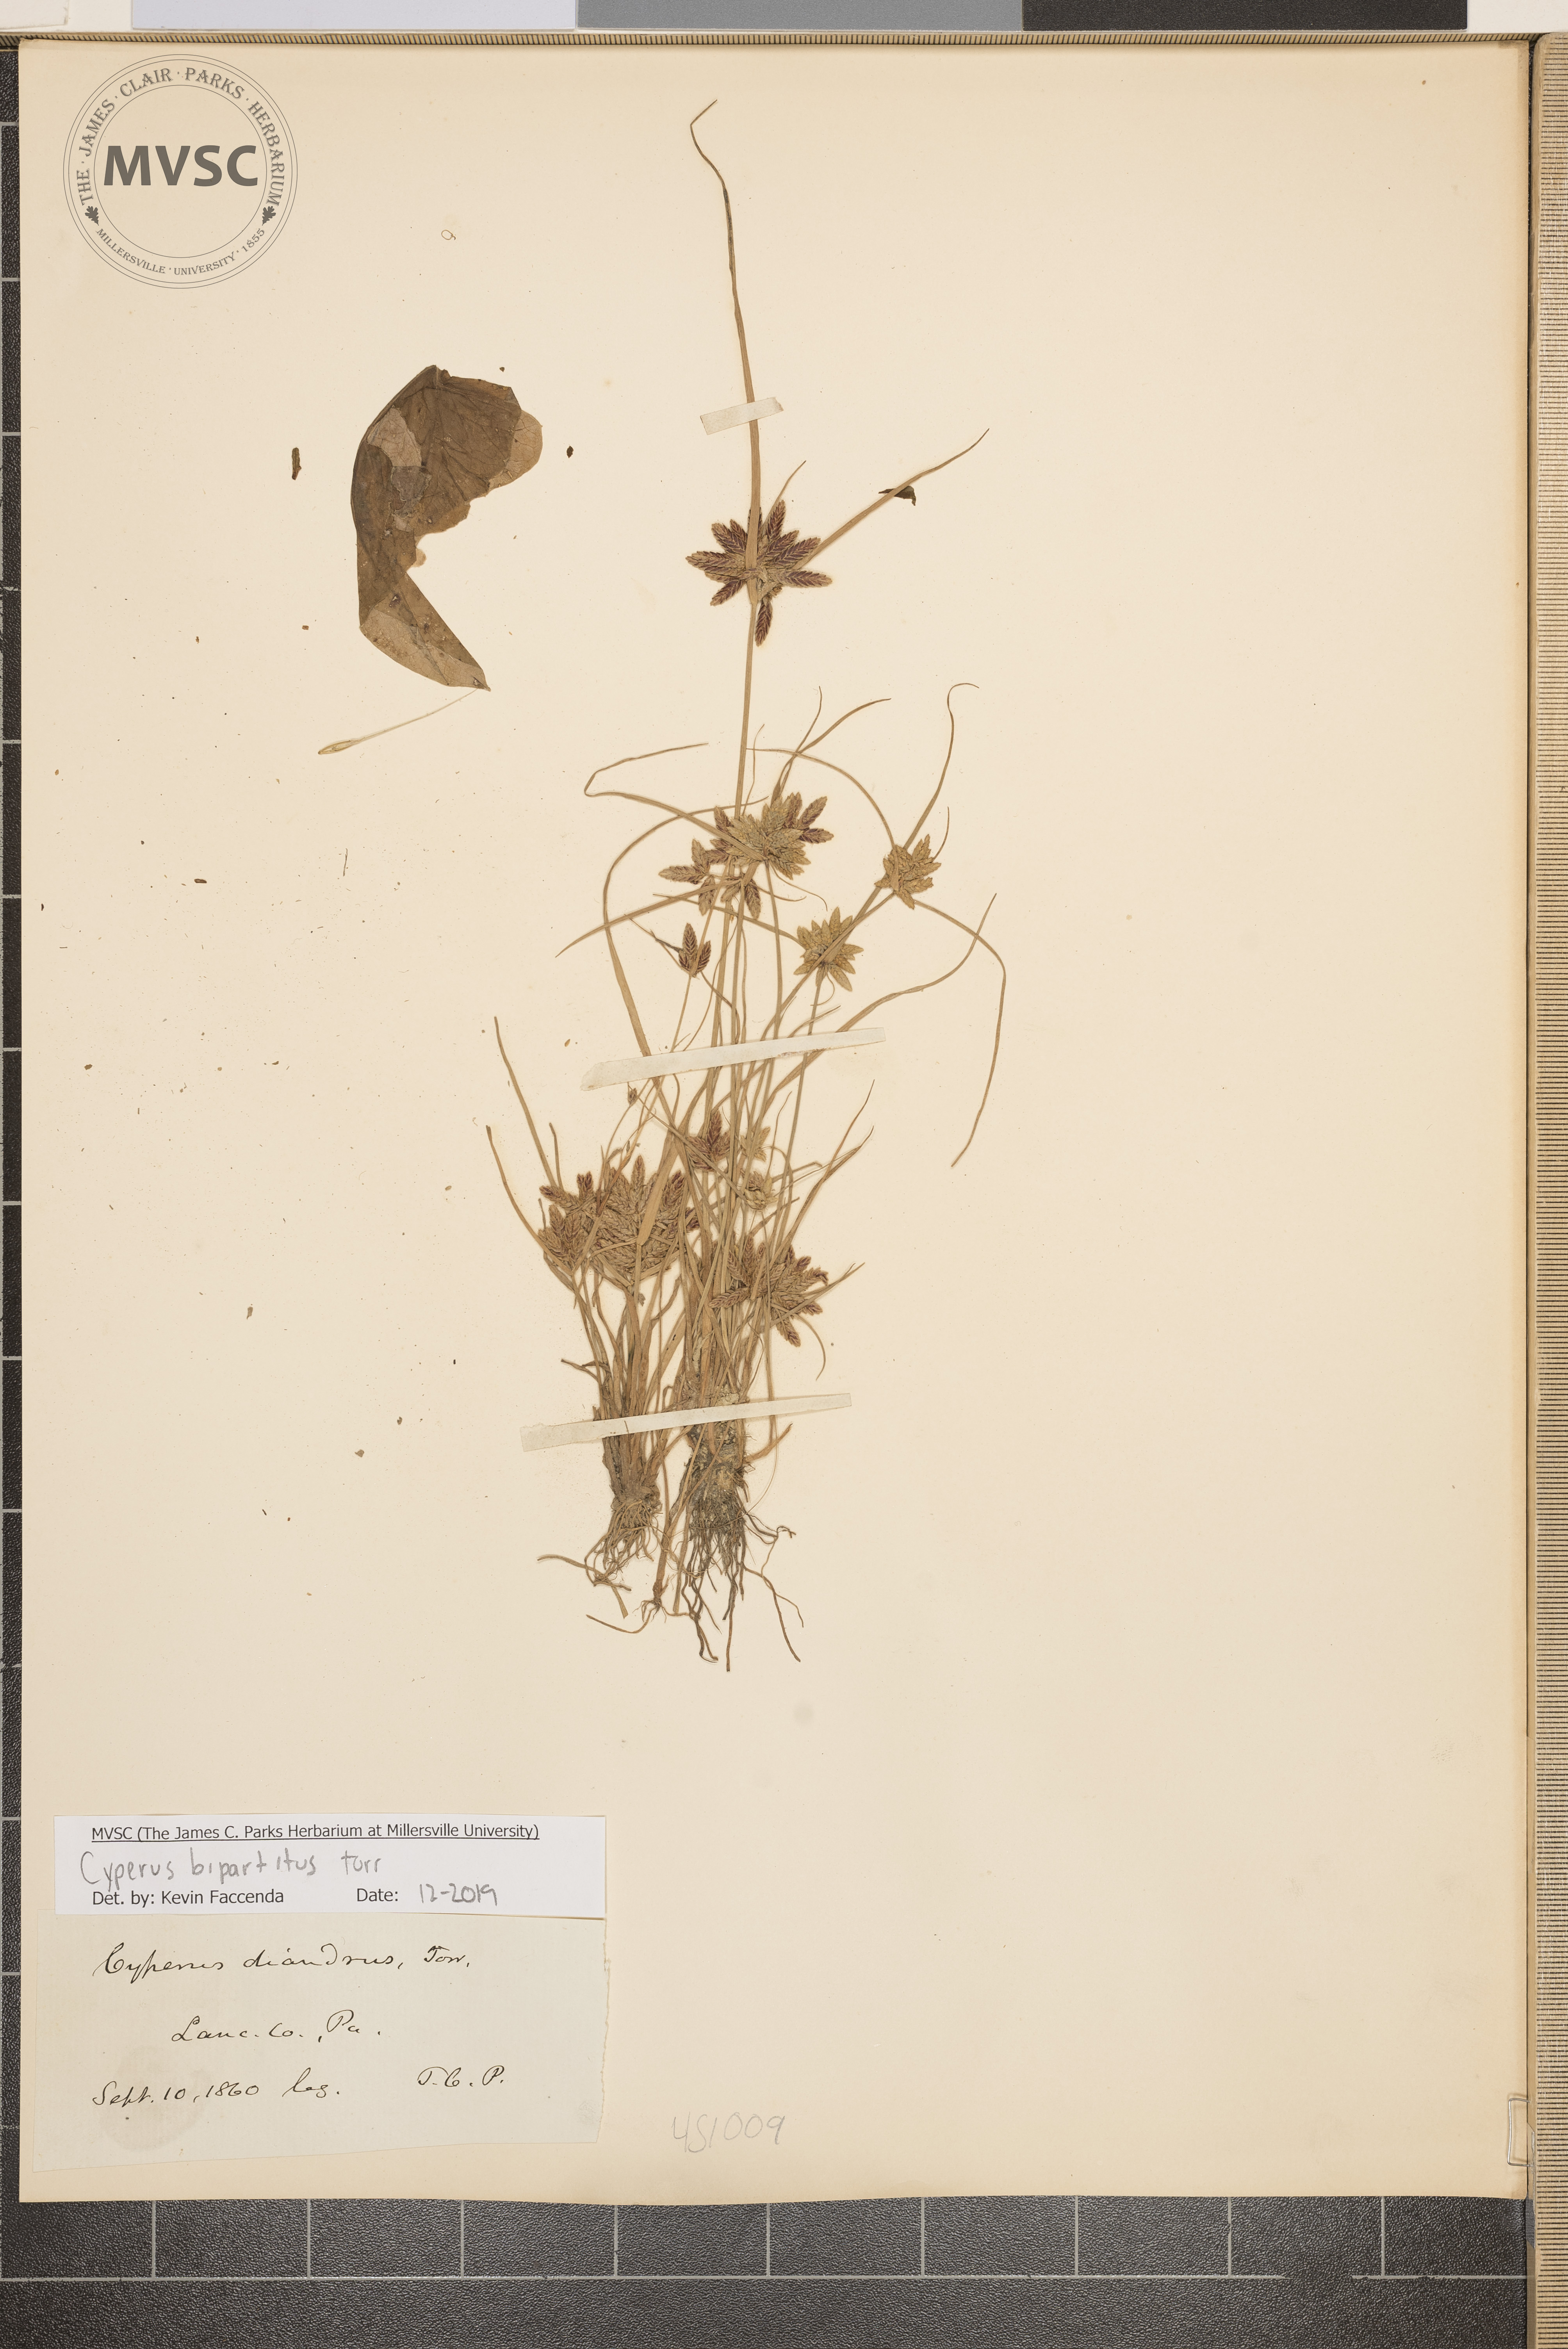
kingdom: Plantae
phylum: Tracheophyta
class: Liliopsida
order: Poales
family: Cyperaceae
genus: Cyperus
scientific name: Cyperus bipartitus
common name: Brook flatsedge
